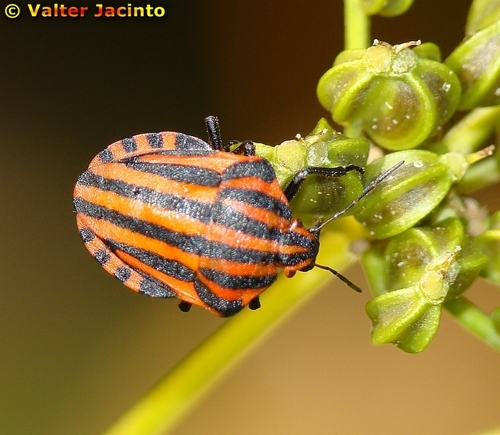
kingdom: Animalia
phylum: Arthropoda
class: Insecta
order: Hemiptera
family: Pentatomidae
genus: Graphosoma
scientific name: Graphosoma italicum
